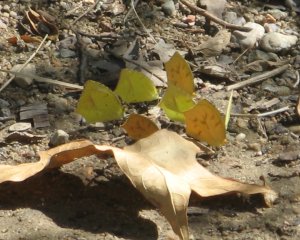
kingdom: Animalia
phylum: Arthropoda
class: Insecta
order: Lepidoptera
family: Pieridae
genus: Eurema
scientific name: Eurema mexicana
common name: Mexican Yellow
